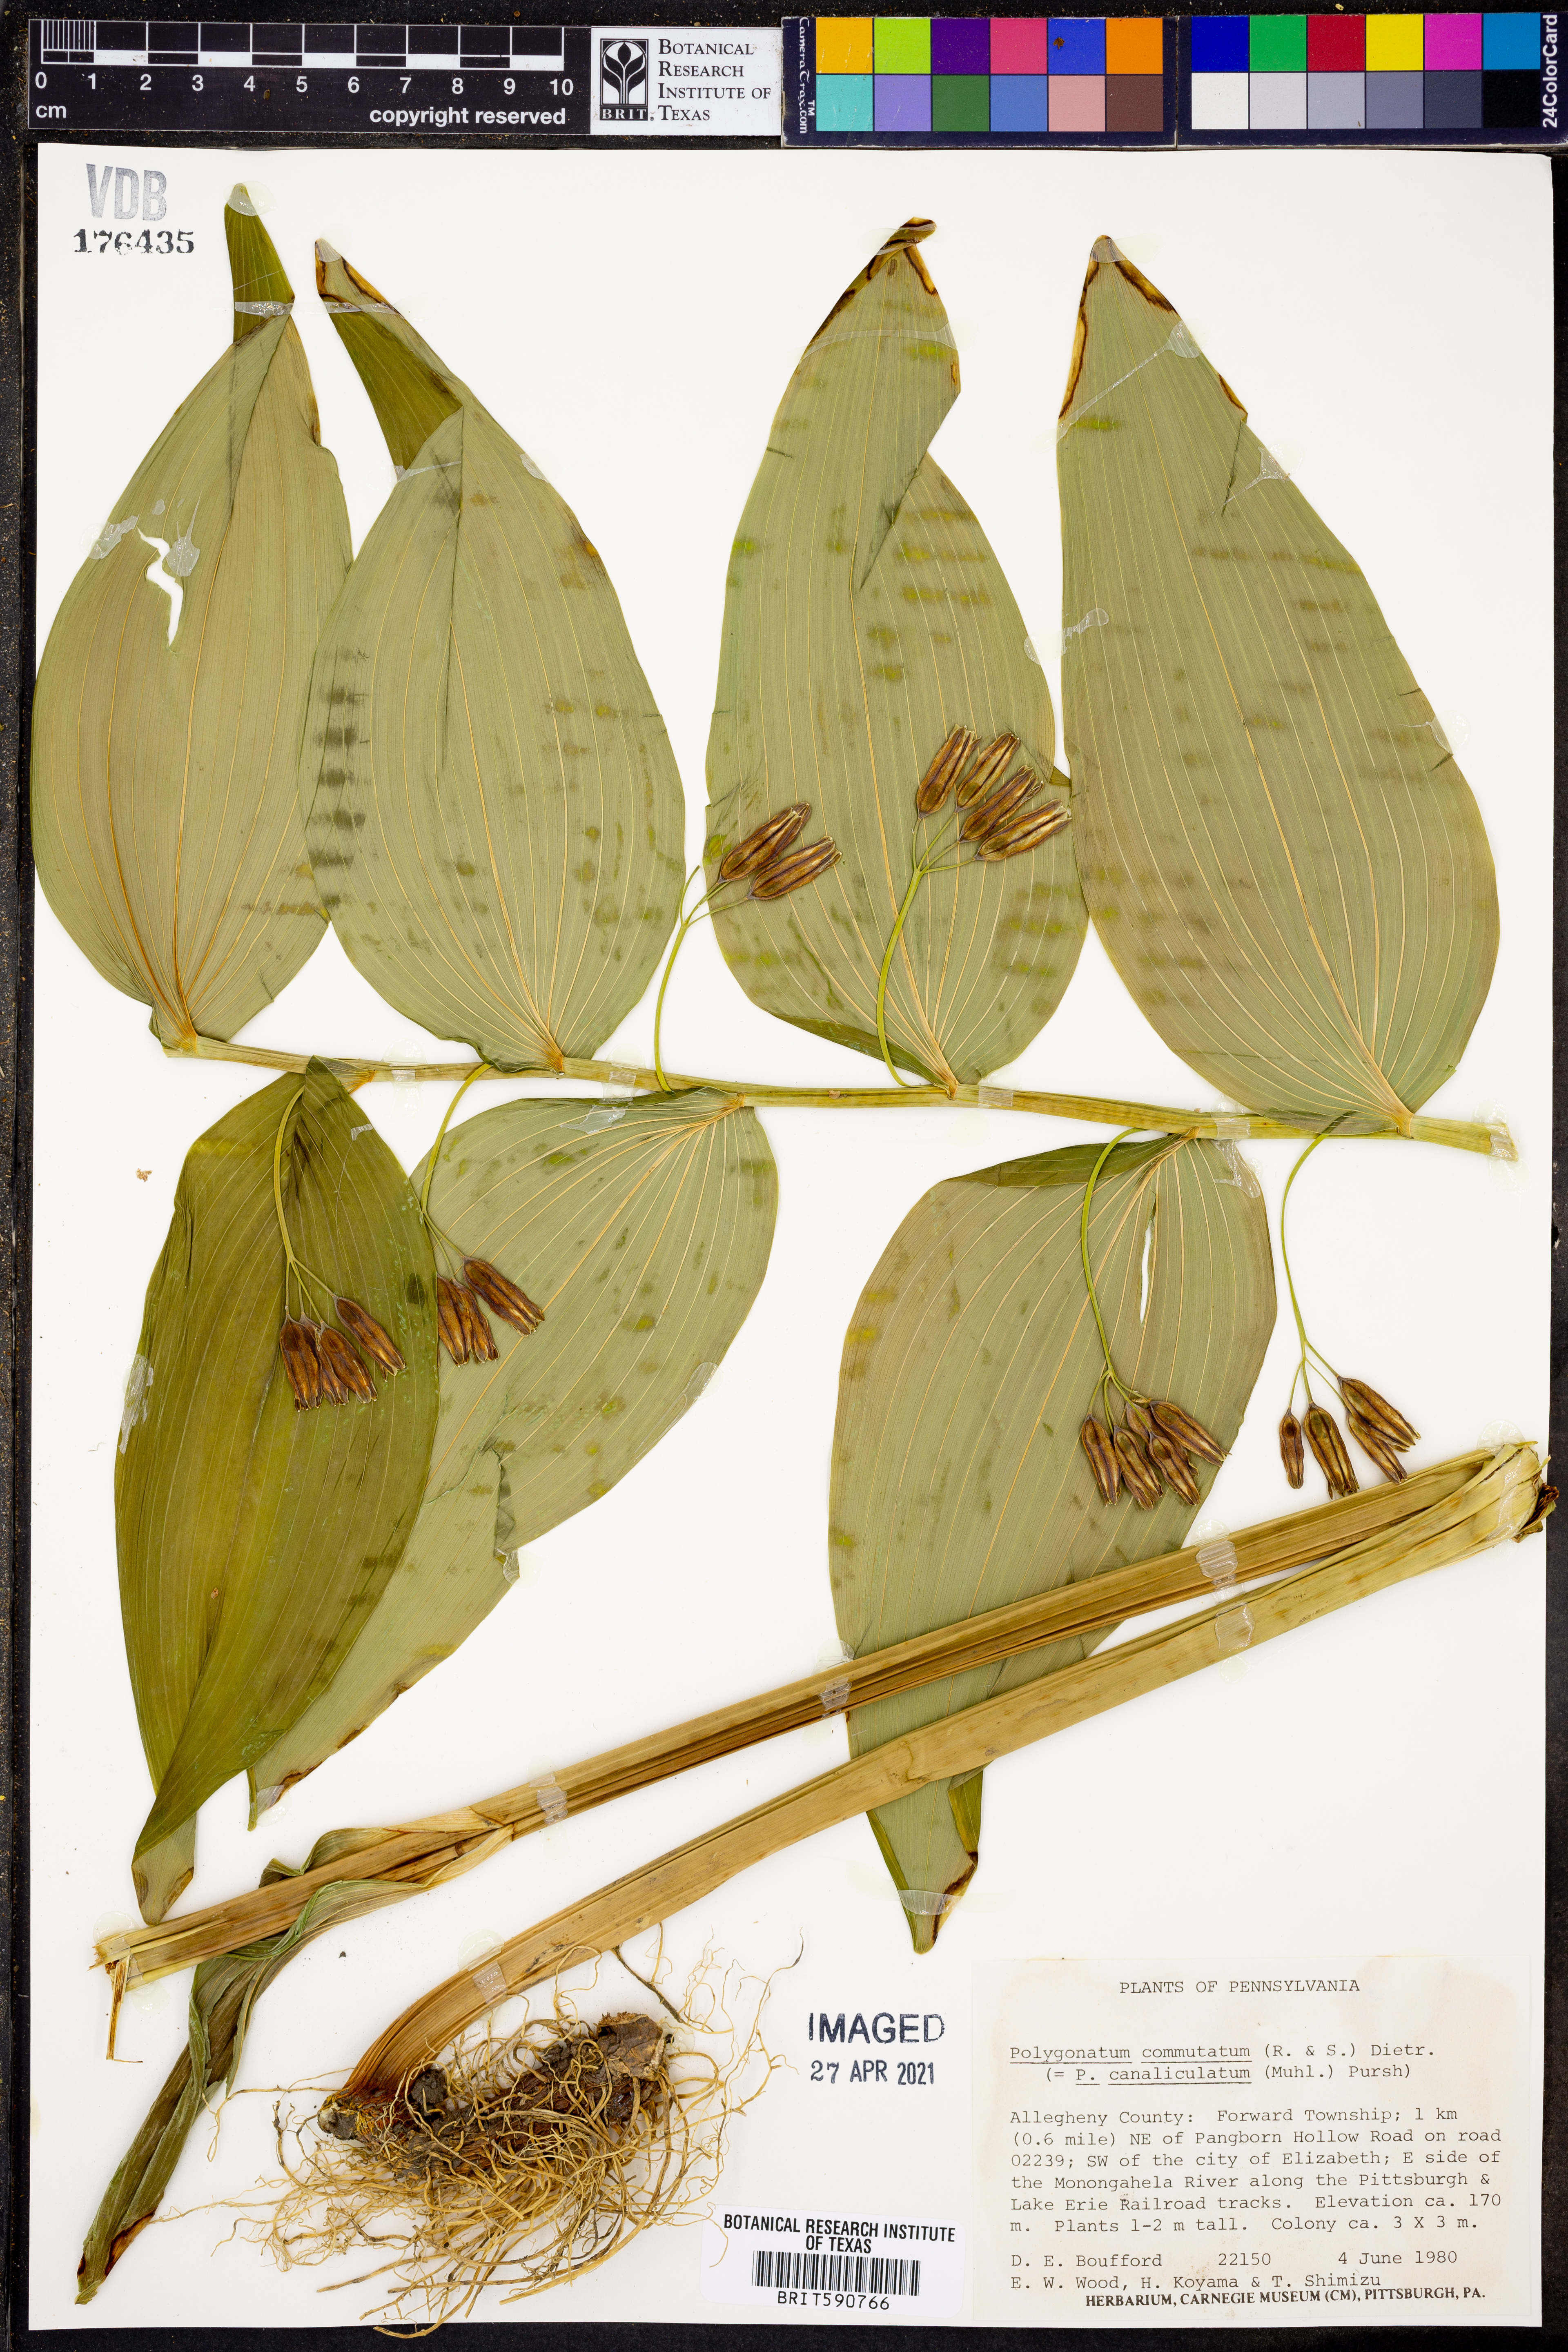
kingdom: Plantae
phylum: Tracheophyta
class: Liliopsida
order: Asparagales
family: Asparagaceae
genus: Polygonatum
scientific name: Polygonatum biflorum
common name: American solomon's-seal
